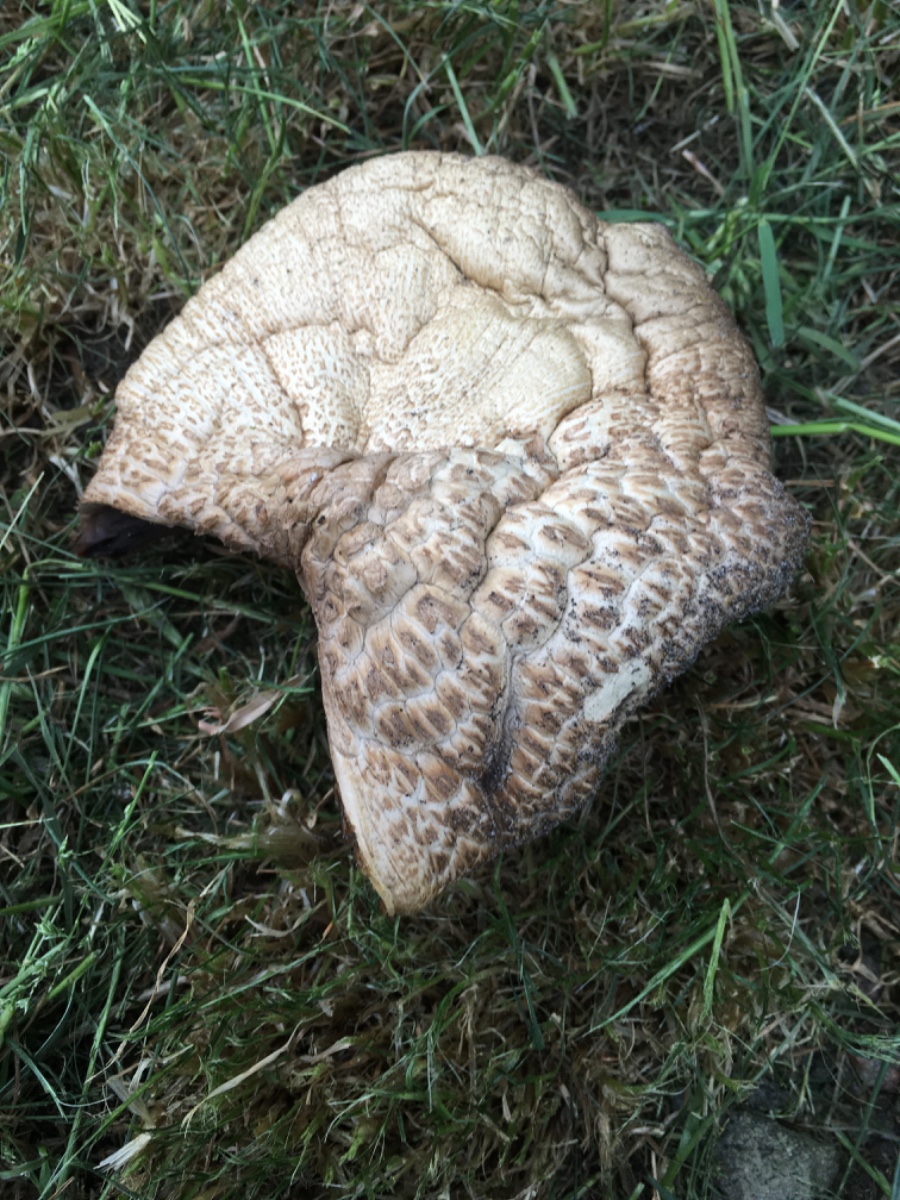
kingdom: Fungi
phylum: Basidiomycota
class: Agaricomycetes
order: Agaricales
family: Agaricaceae
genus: Agaricus
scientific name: Agaricus
